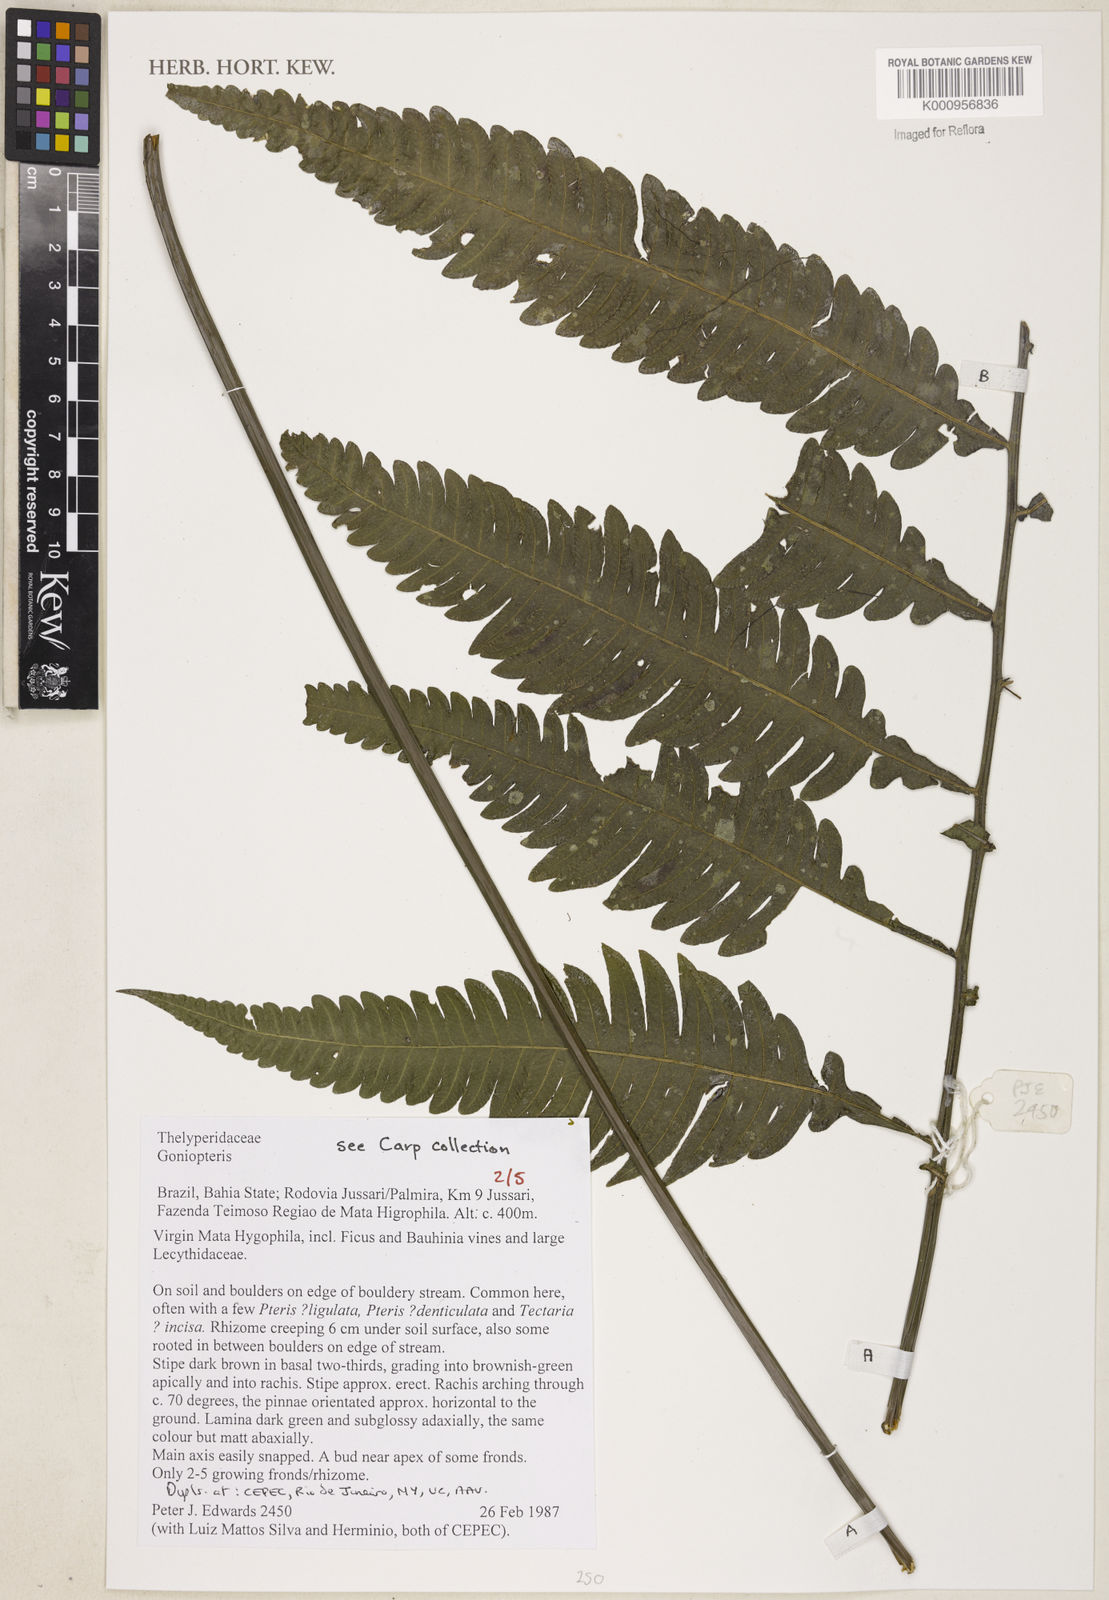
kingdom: Plantae
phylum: Tracheophyta
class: Polypodiopsida
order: Polypodiales
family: Thelypteridaceae
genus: Goniopteris
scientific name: Goniopteris smithii
